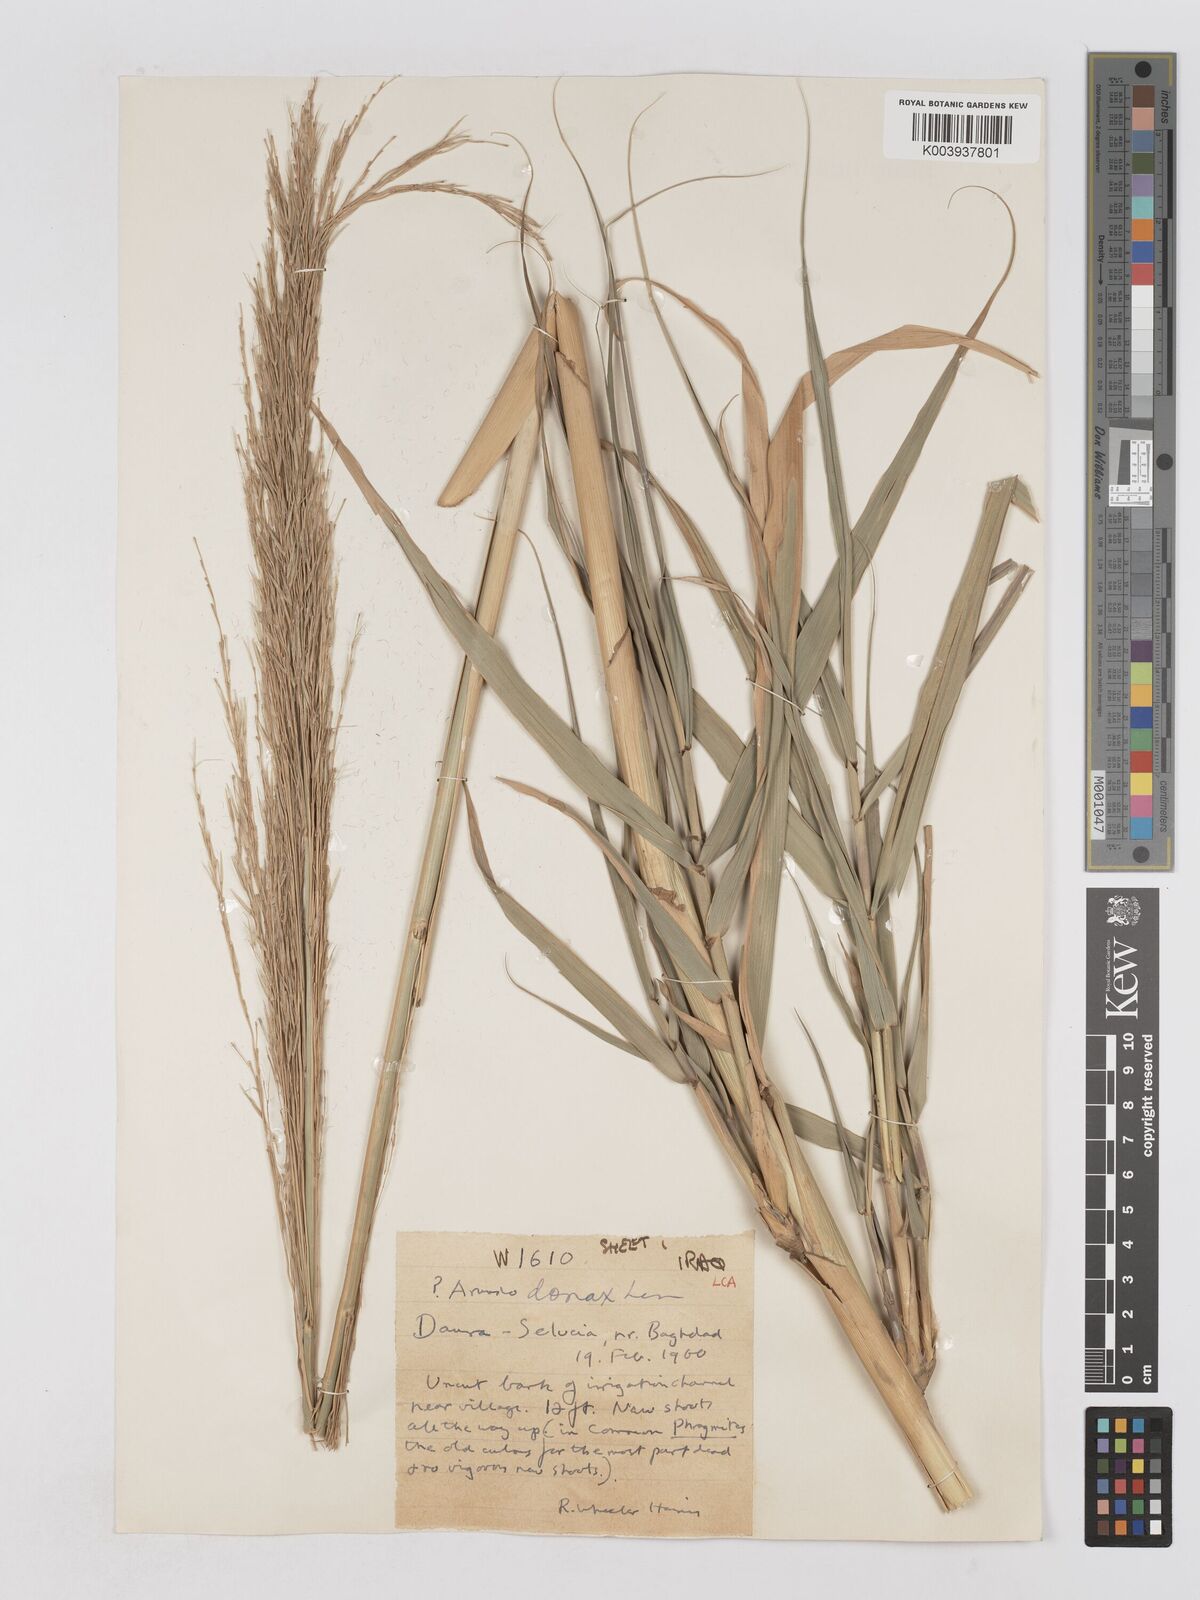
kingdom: Plantae
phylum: Tracheophyta
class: Liliopsida
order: Poales
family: Poaceae
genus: Arundo
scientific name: Arundo donax
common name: Giant reed
